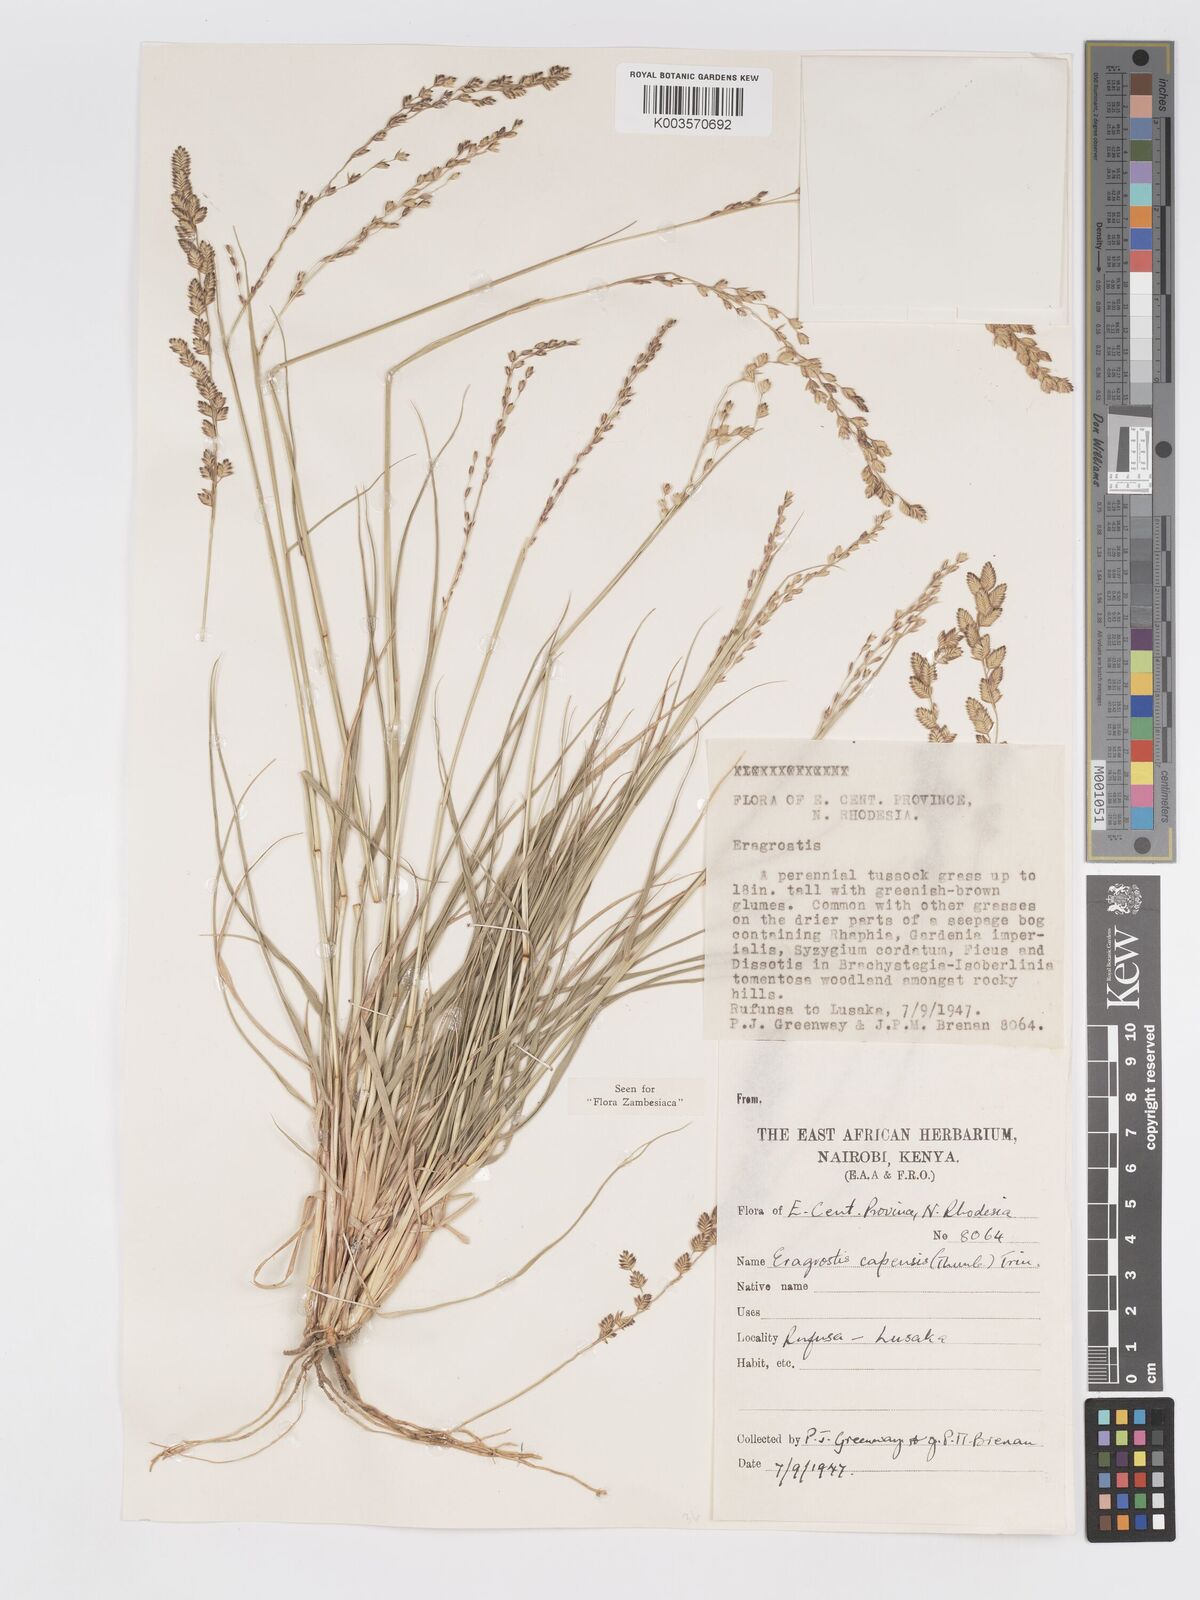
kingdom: Plantae
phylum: Tracheophyta
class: Liliopsida
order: Poales
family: Poaceae
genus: Eragrostis
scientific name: Eragrostis capensis
